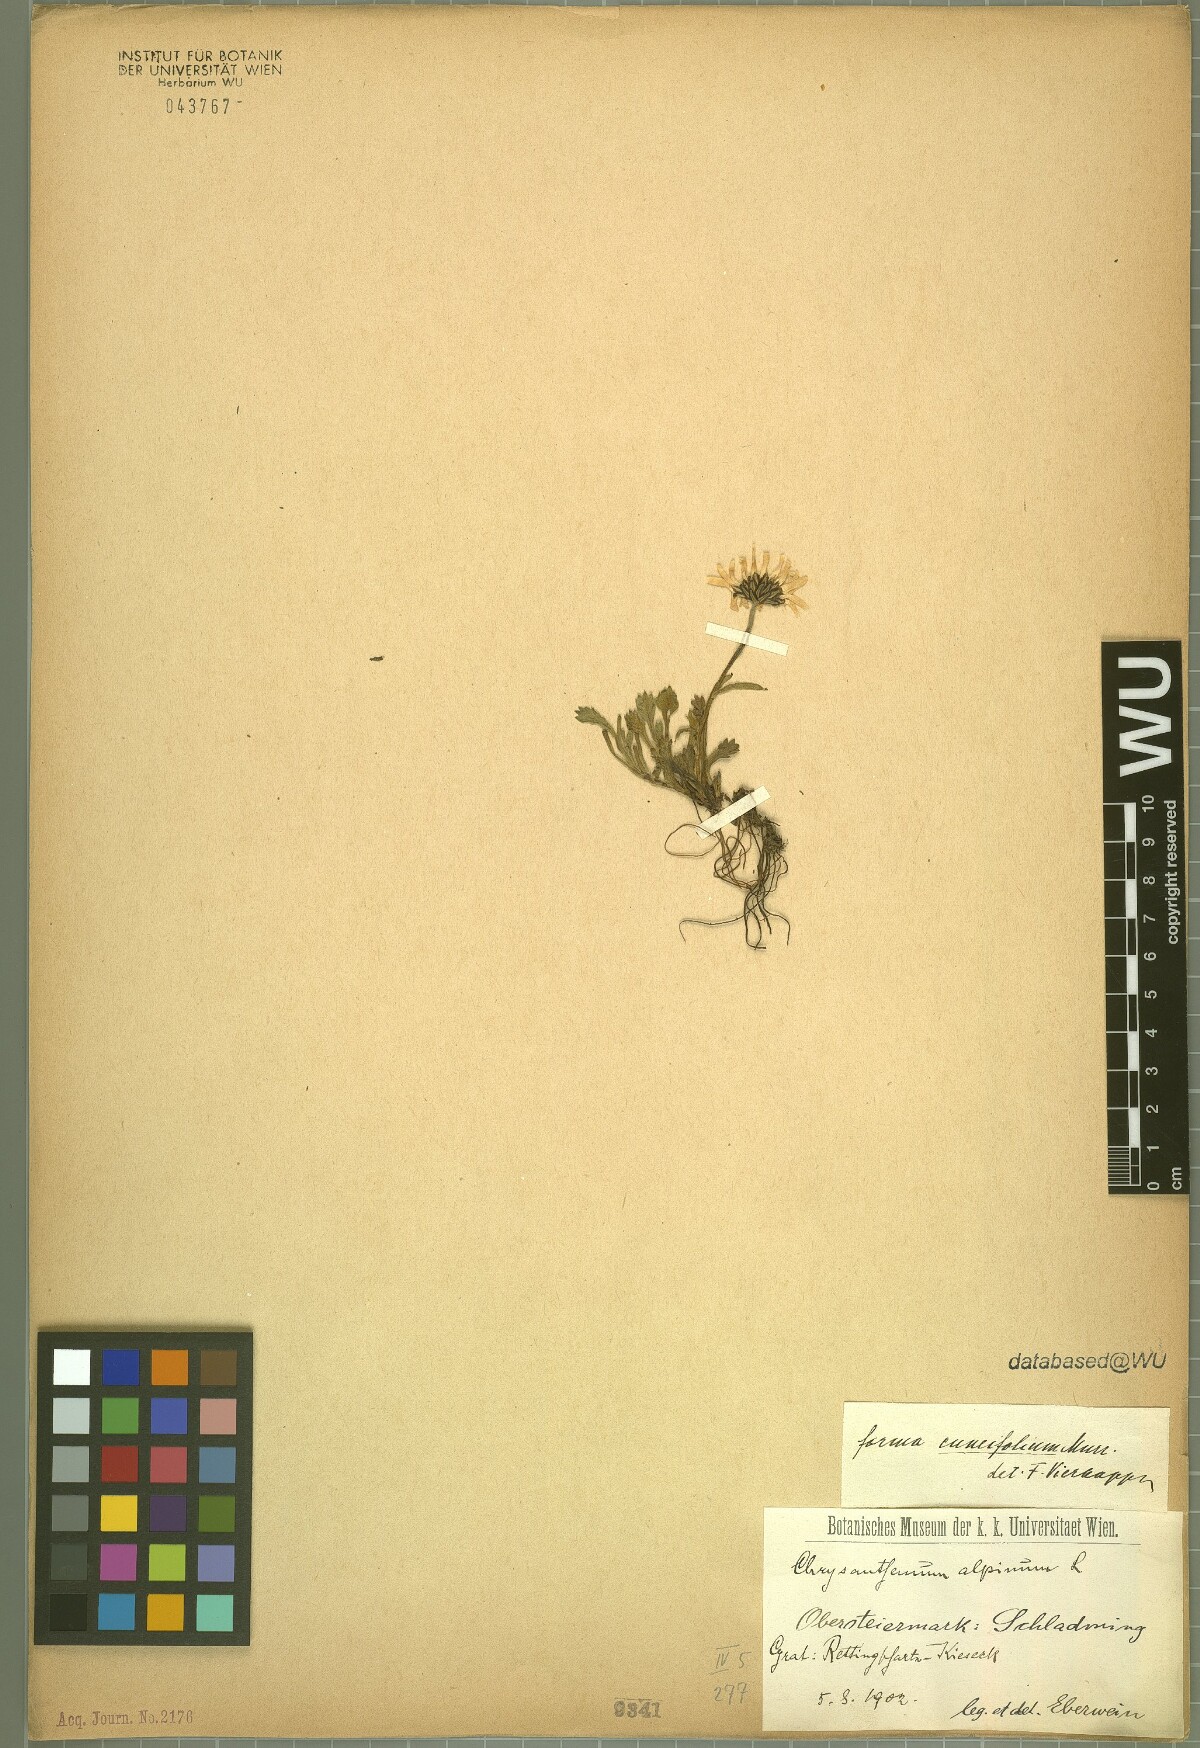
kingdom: Plantae
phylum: Tracheophyta
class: Magnoliopsida
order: Asterales
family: Asteraceae
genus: Leucanthemopsis
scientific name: Leucanthemopsis alpina
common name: Alpine moon daisy
